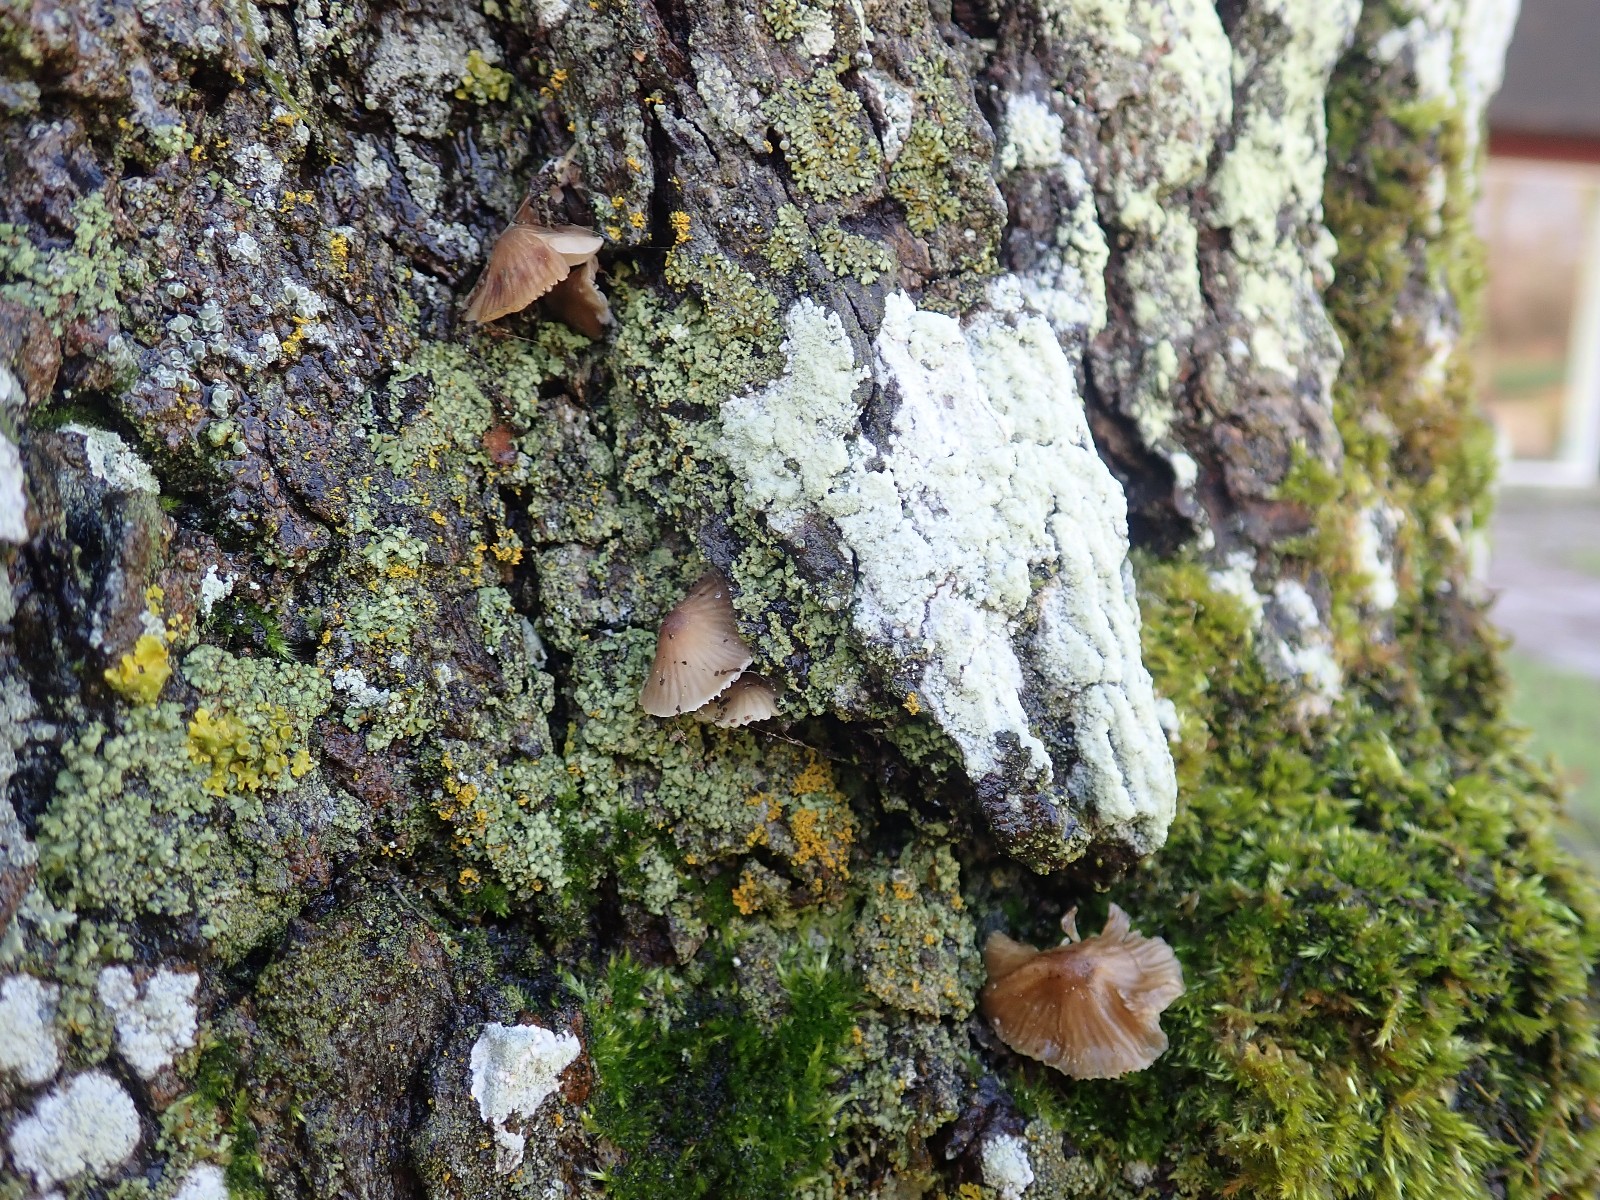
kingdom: Fungi
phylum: Basidiomycota
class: Agaricomycetes
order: Agaricales
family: Mycenaceae
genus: Mycena
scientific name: Mycena erubescens
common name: galde-huesvamp
